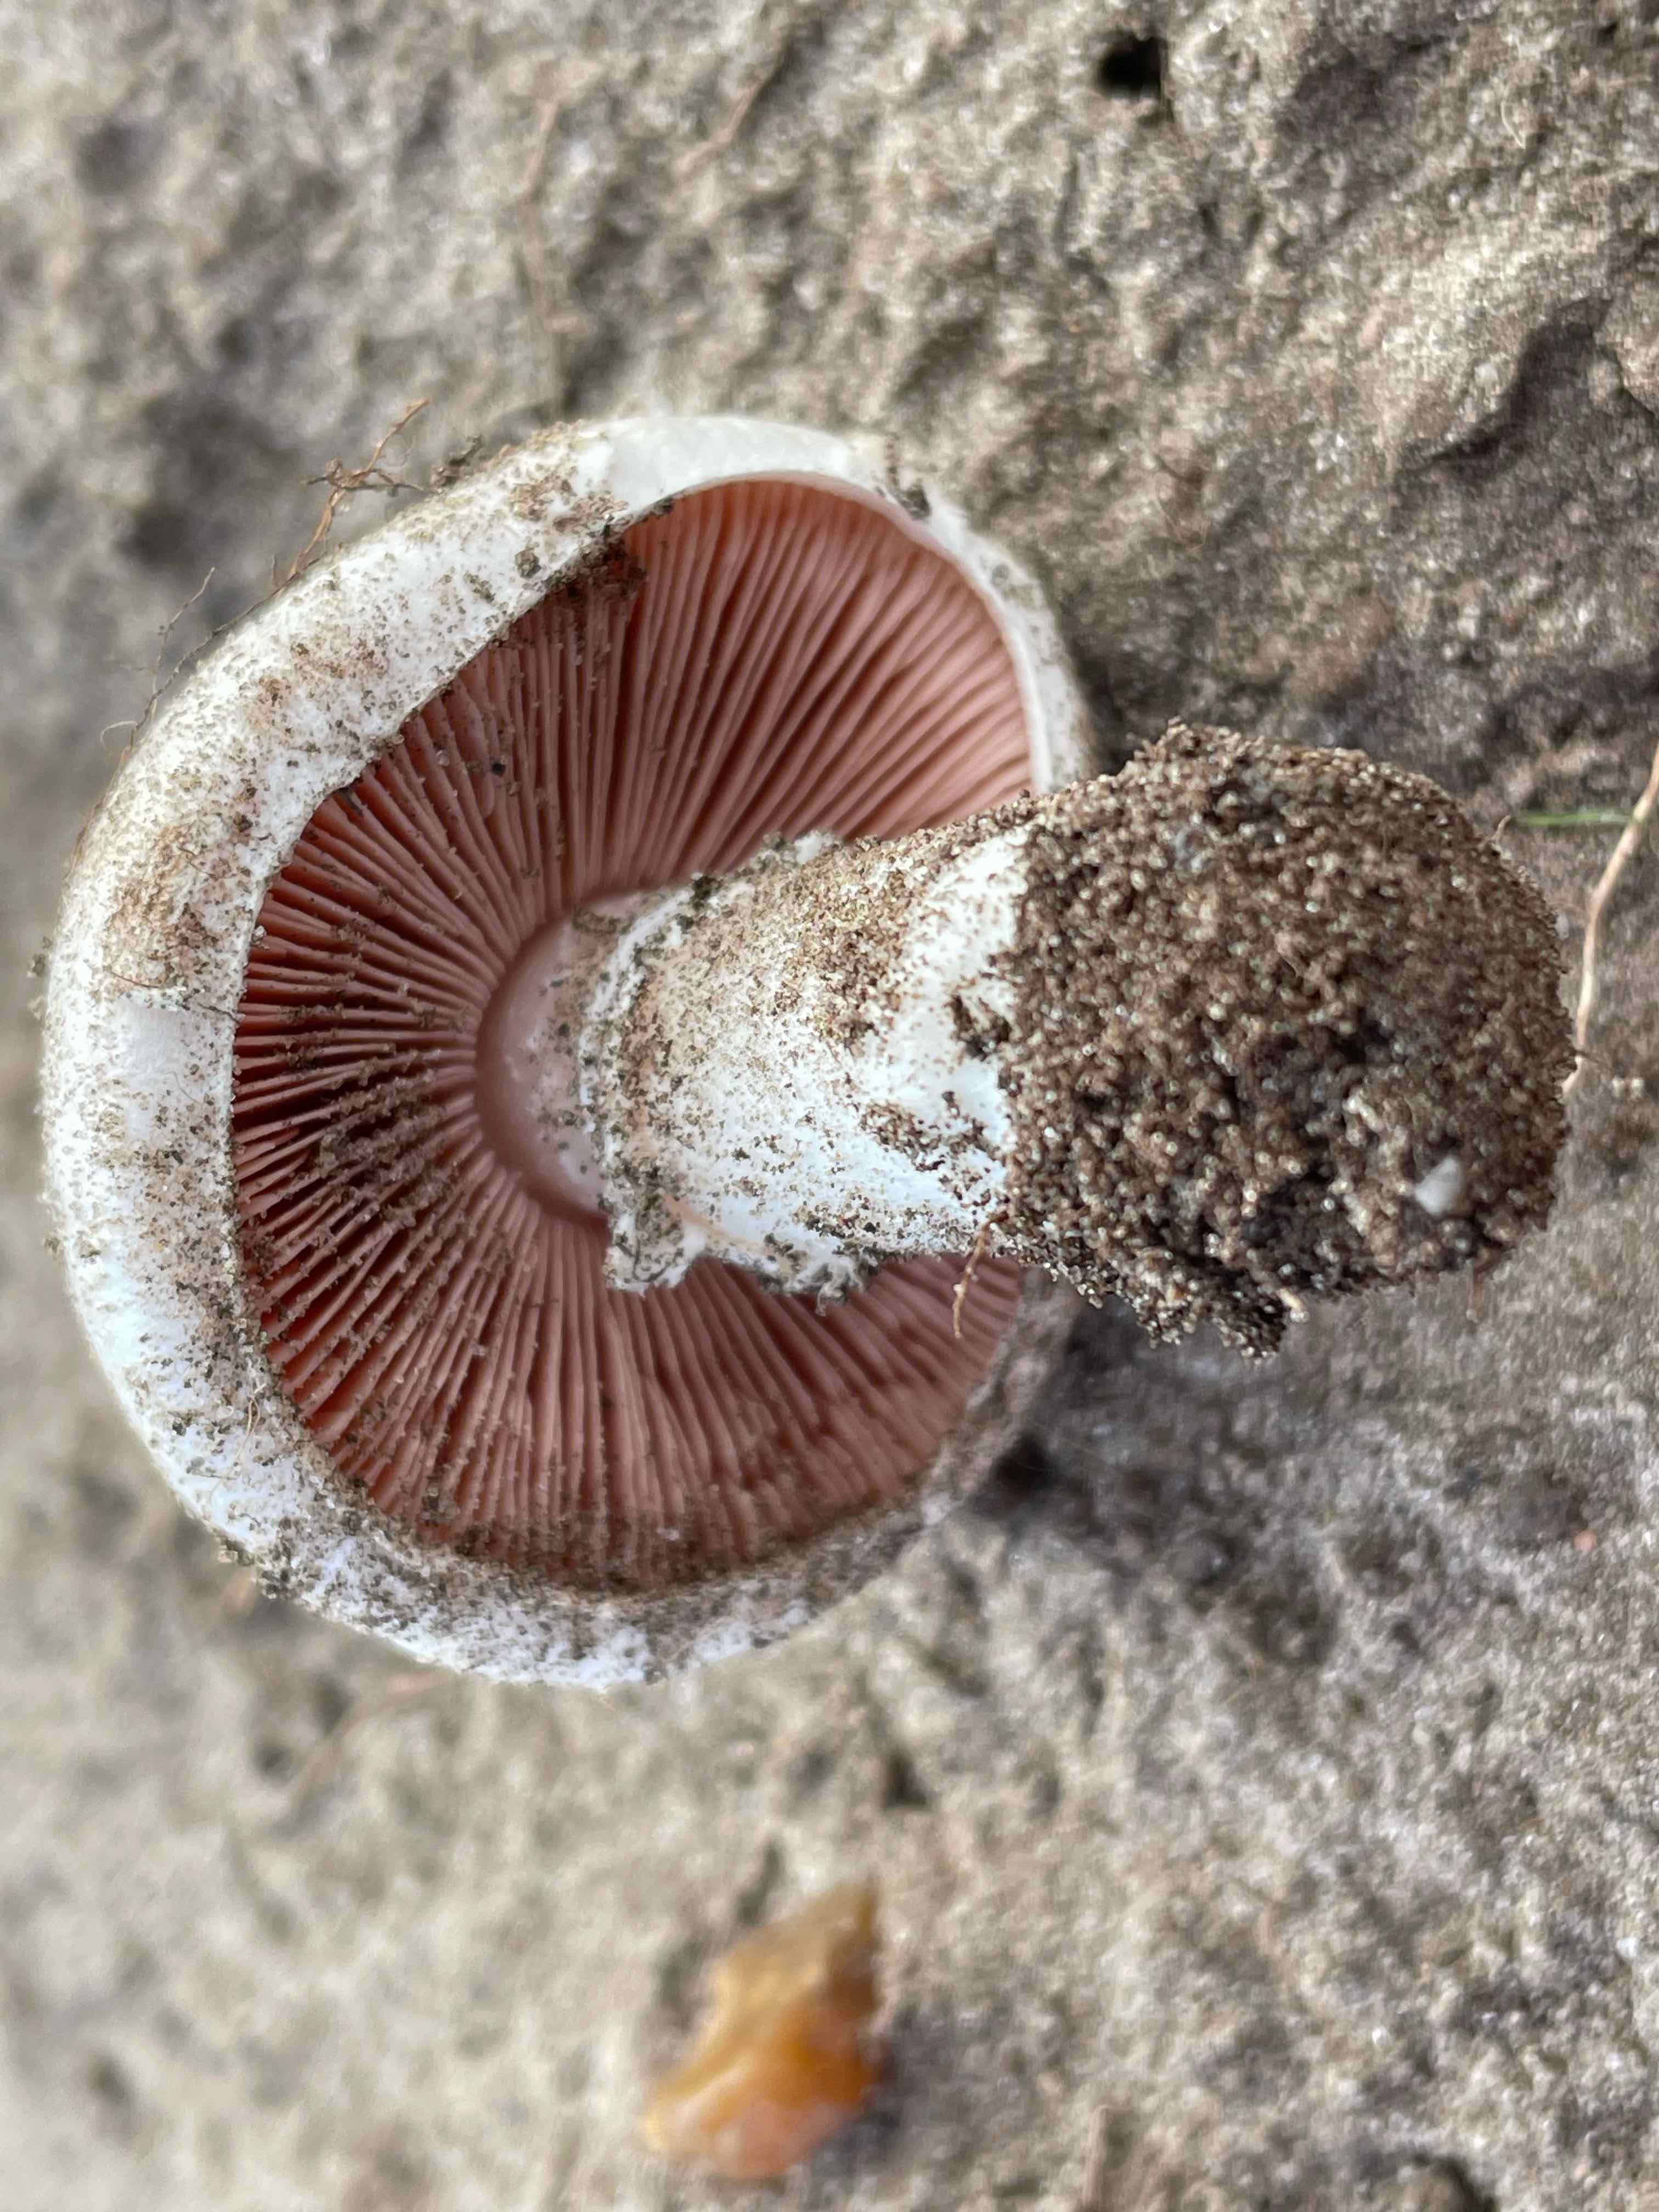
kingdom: Fungi
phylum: Basidiomycota
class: Agaricomycetes
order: Agaricales
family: Agaricaceae
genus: Agaricus
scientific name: Agaricus campestris
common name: mark-champignon
